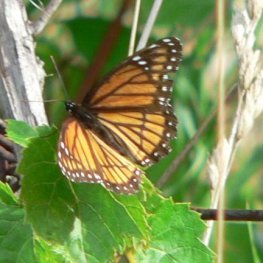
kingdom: Animalia
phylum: Arthropoda
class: Insecta
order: Lepidoptera
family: Nymphalidae
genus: Limenitis
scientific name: Limenitis archippus
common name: Viceroy
